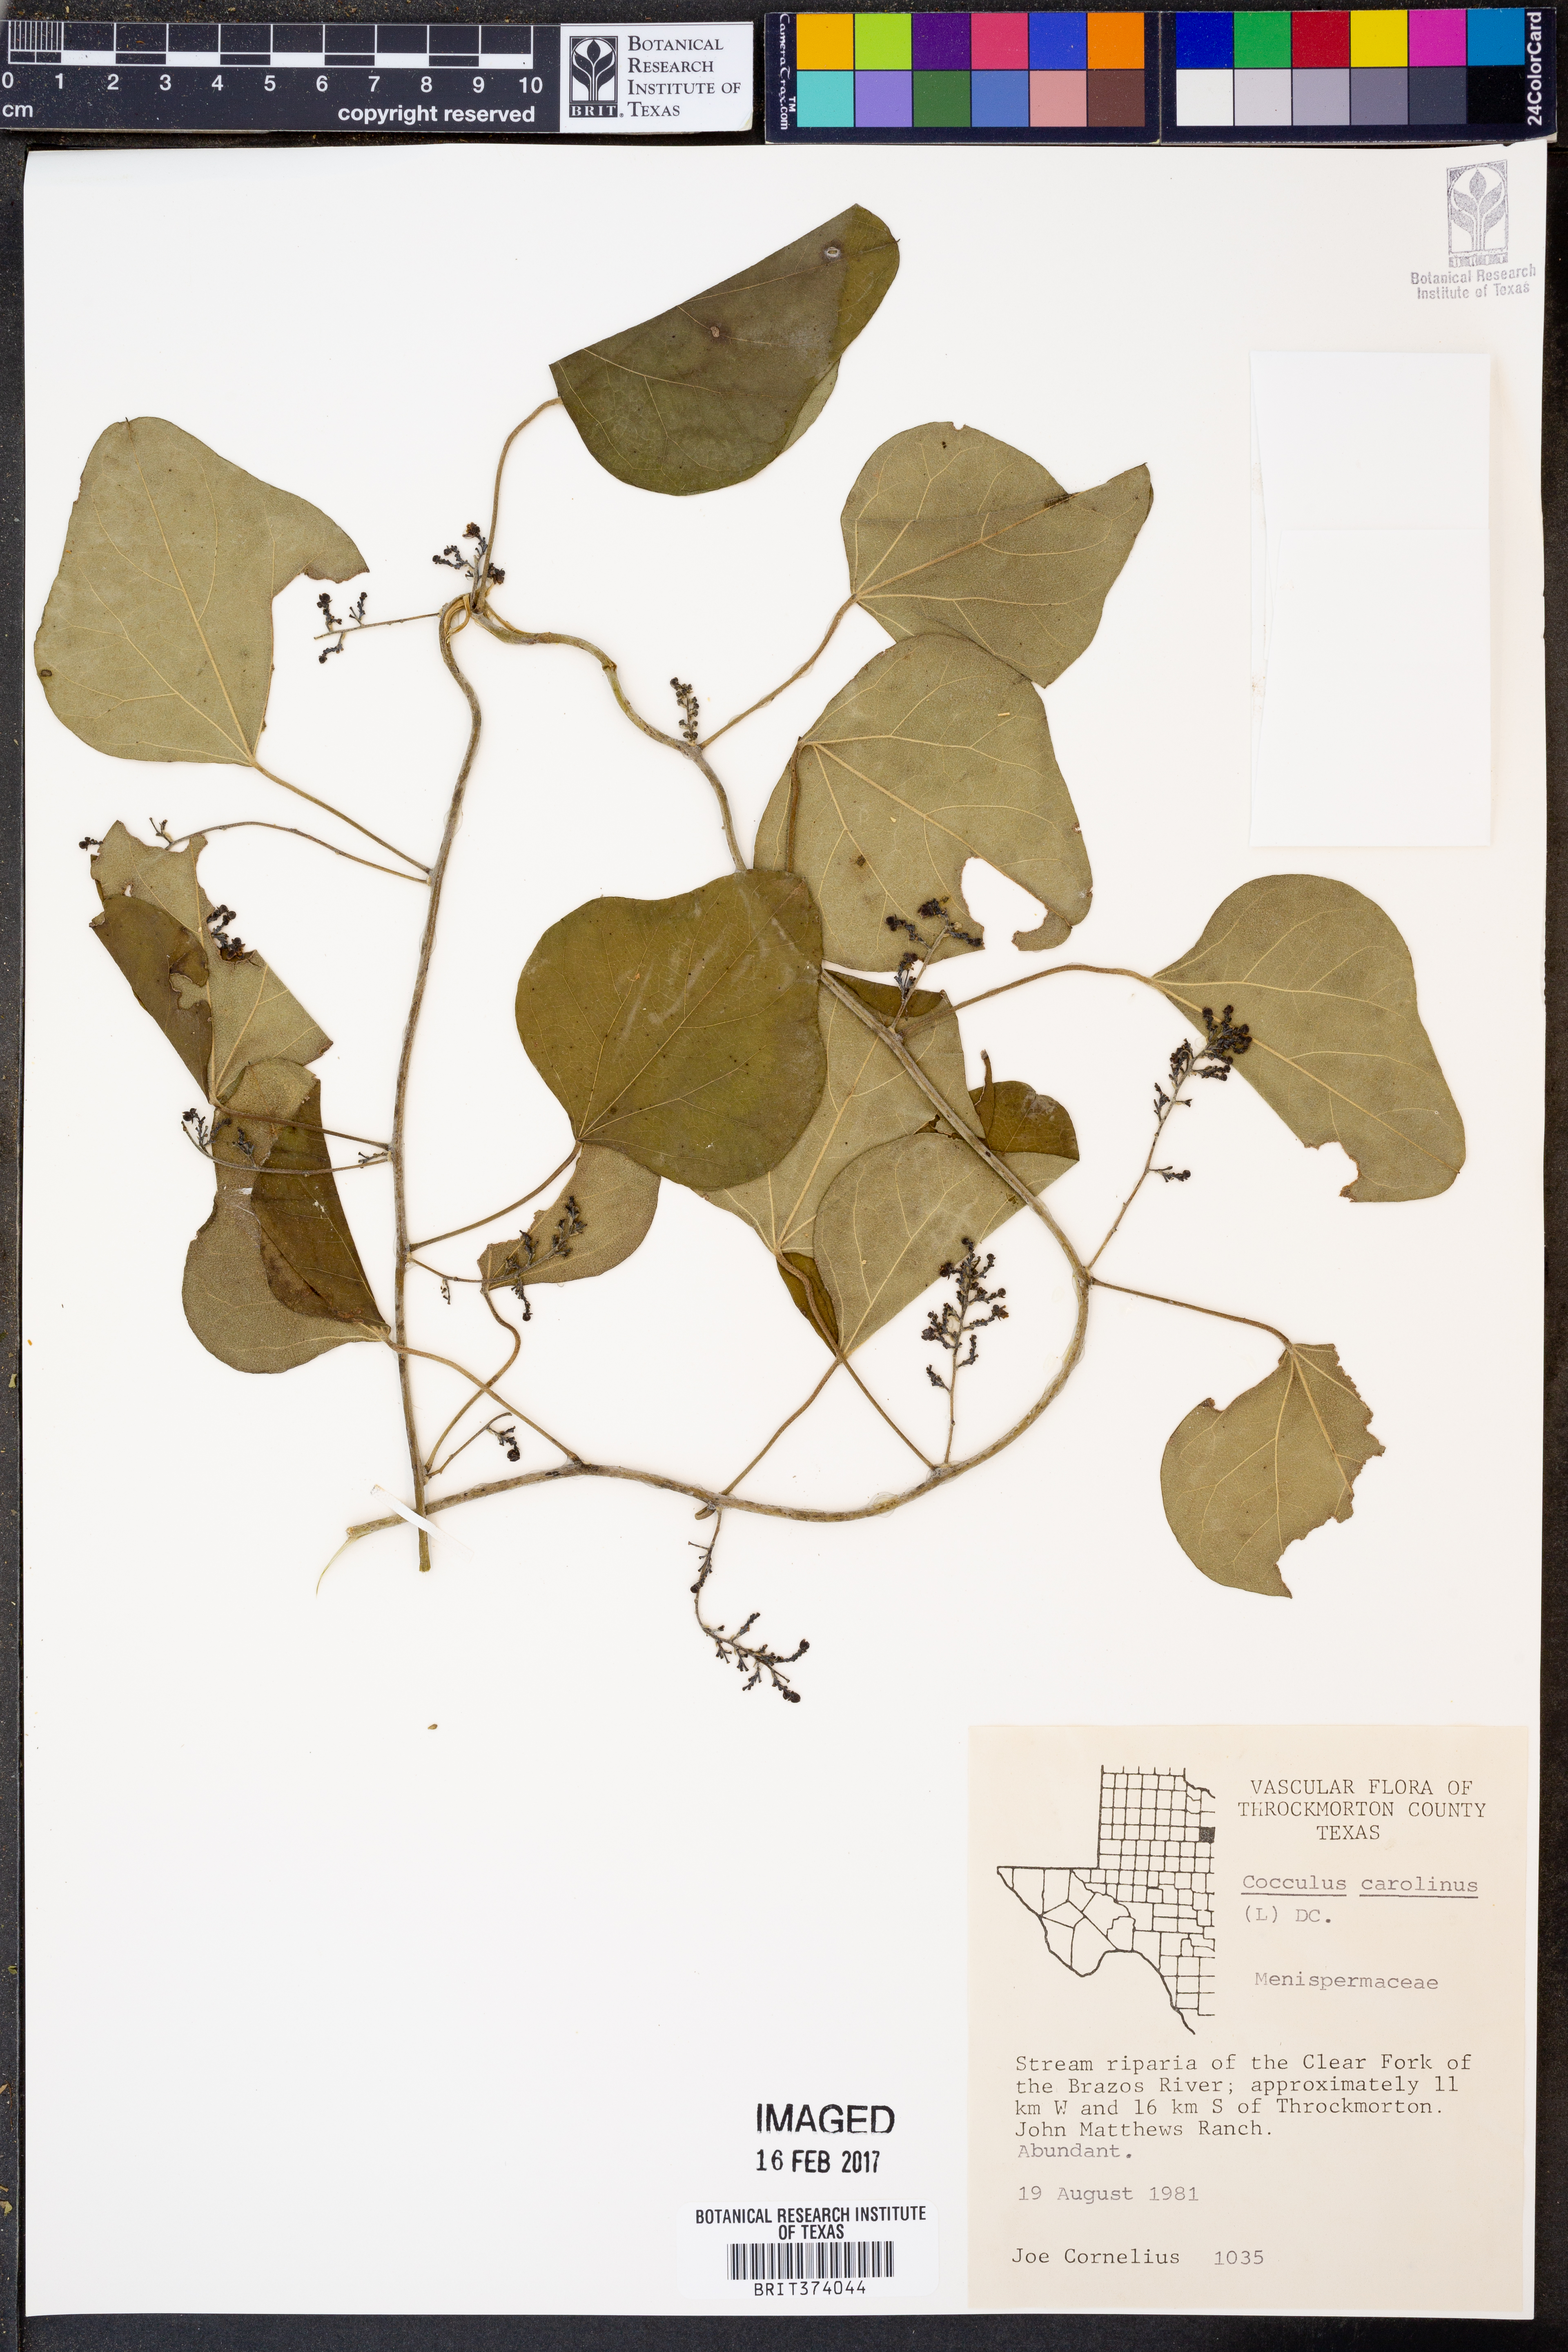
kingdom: Plantae
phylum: Tracheophyta
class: Magnoliopsida
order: Ranunculales
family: Menispermaceae
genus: Cocculus
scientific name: Cocculus carolinus
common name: Carolina moonseed
